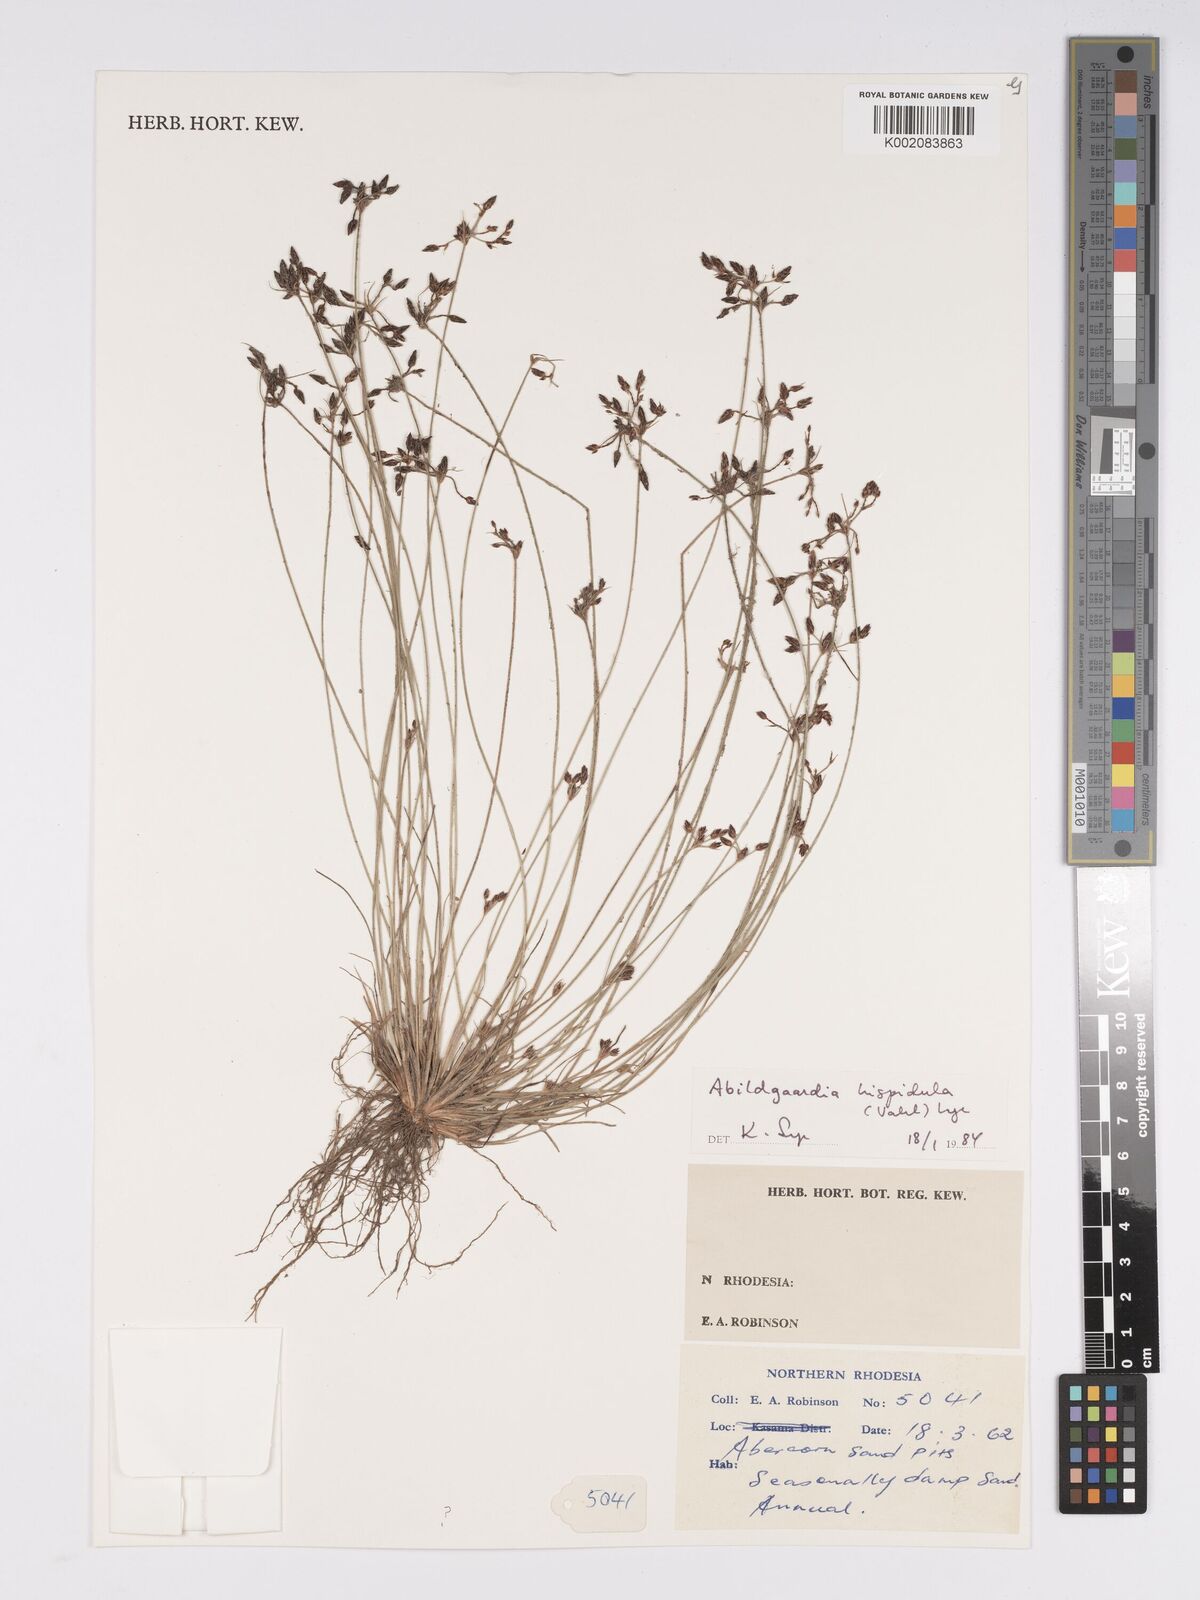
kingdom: Plantae
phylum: Tracheophyta
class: Liliopsida
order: Poales
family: Cyperaceae
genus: Bulbostylis
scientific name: Bulbostylis hispidula
